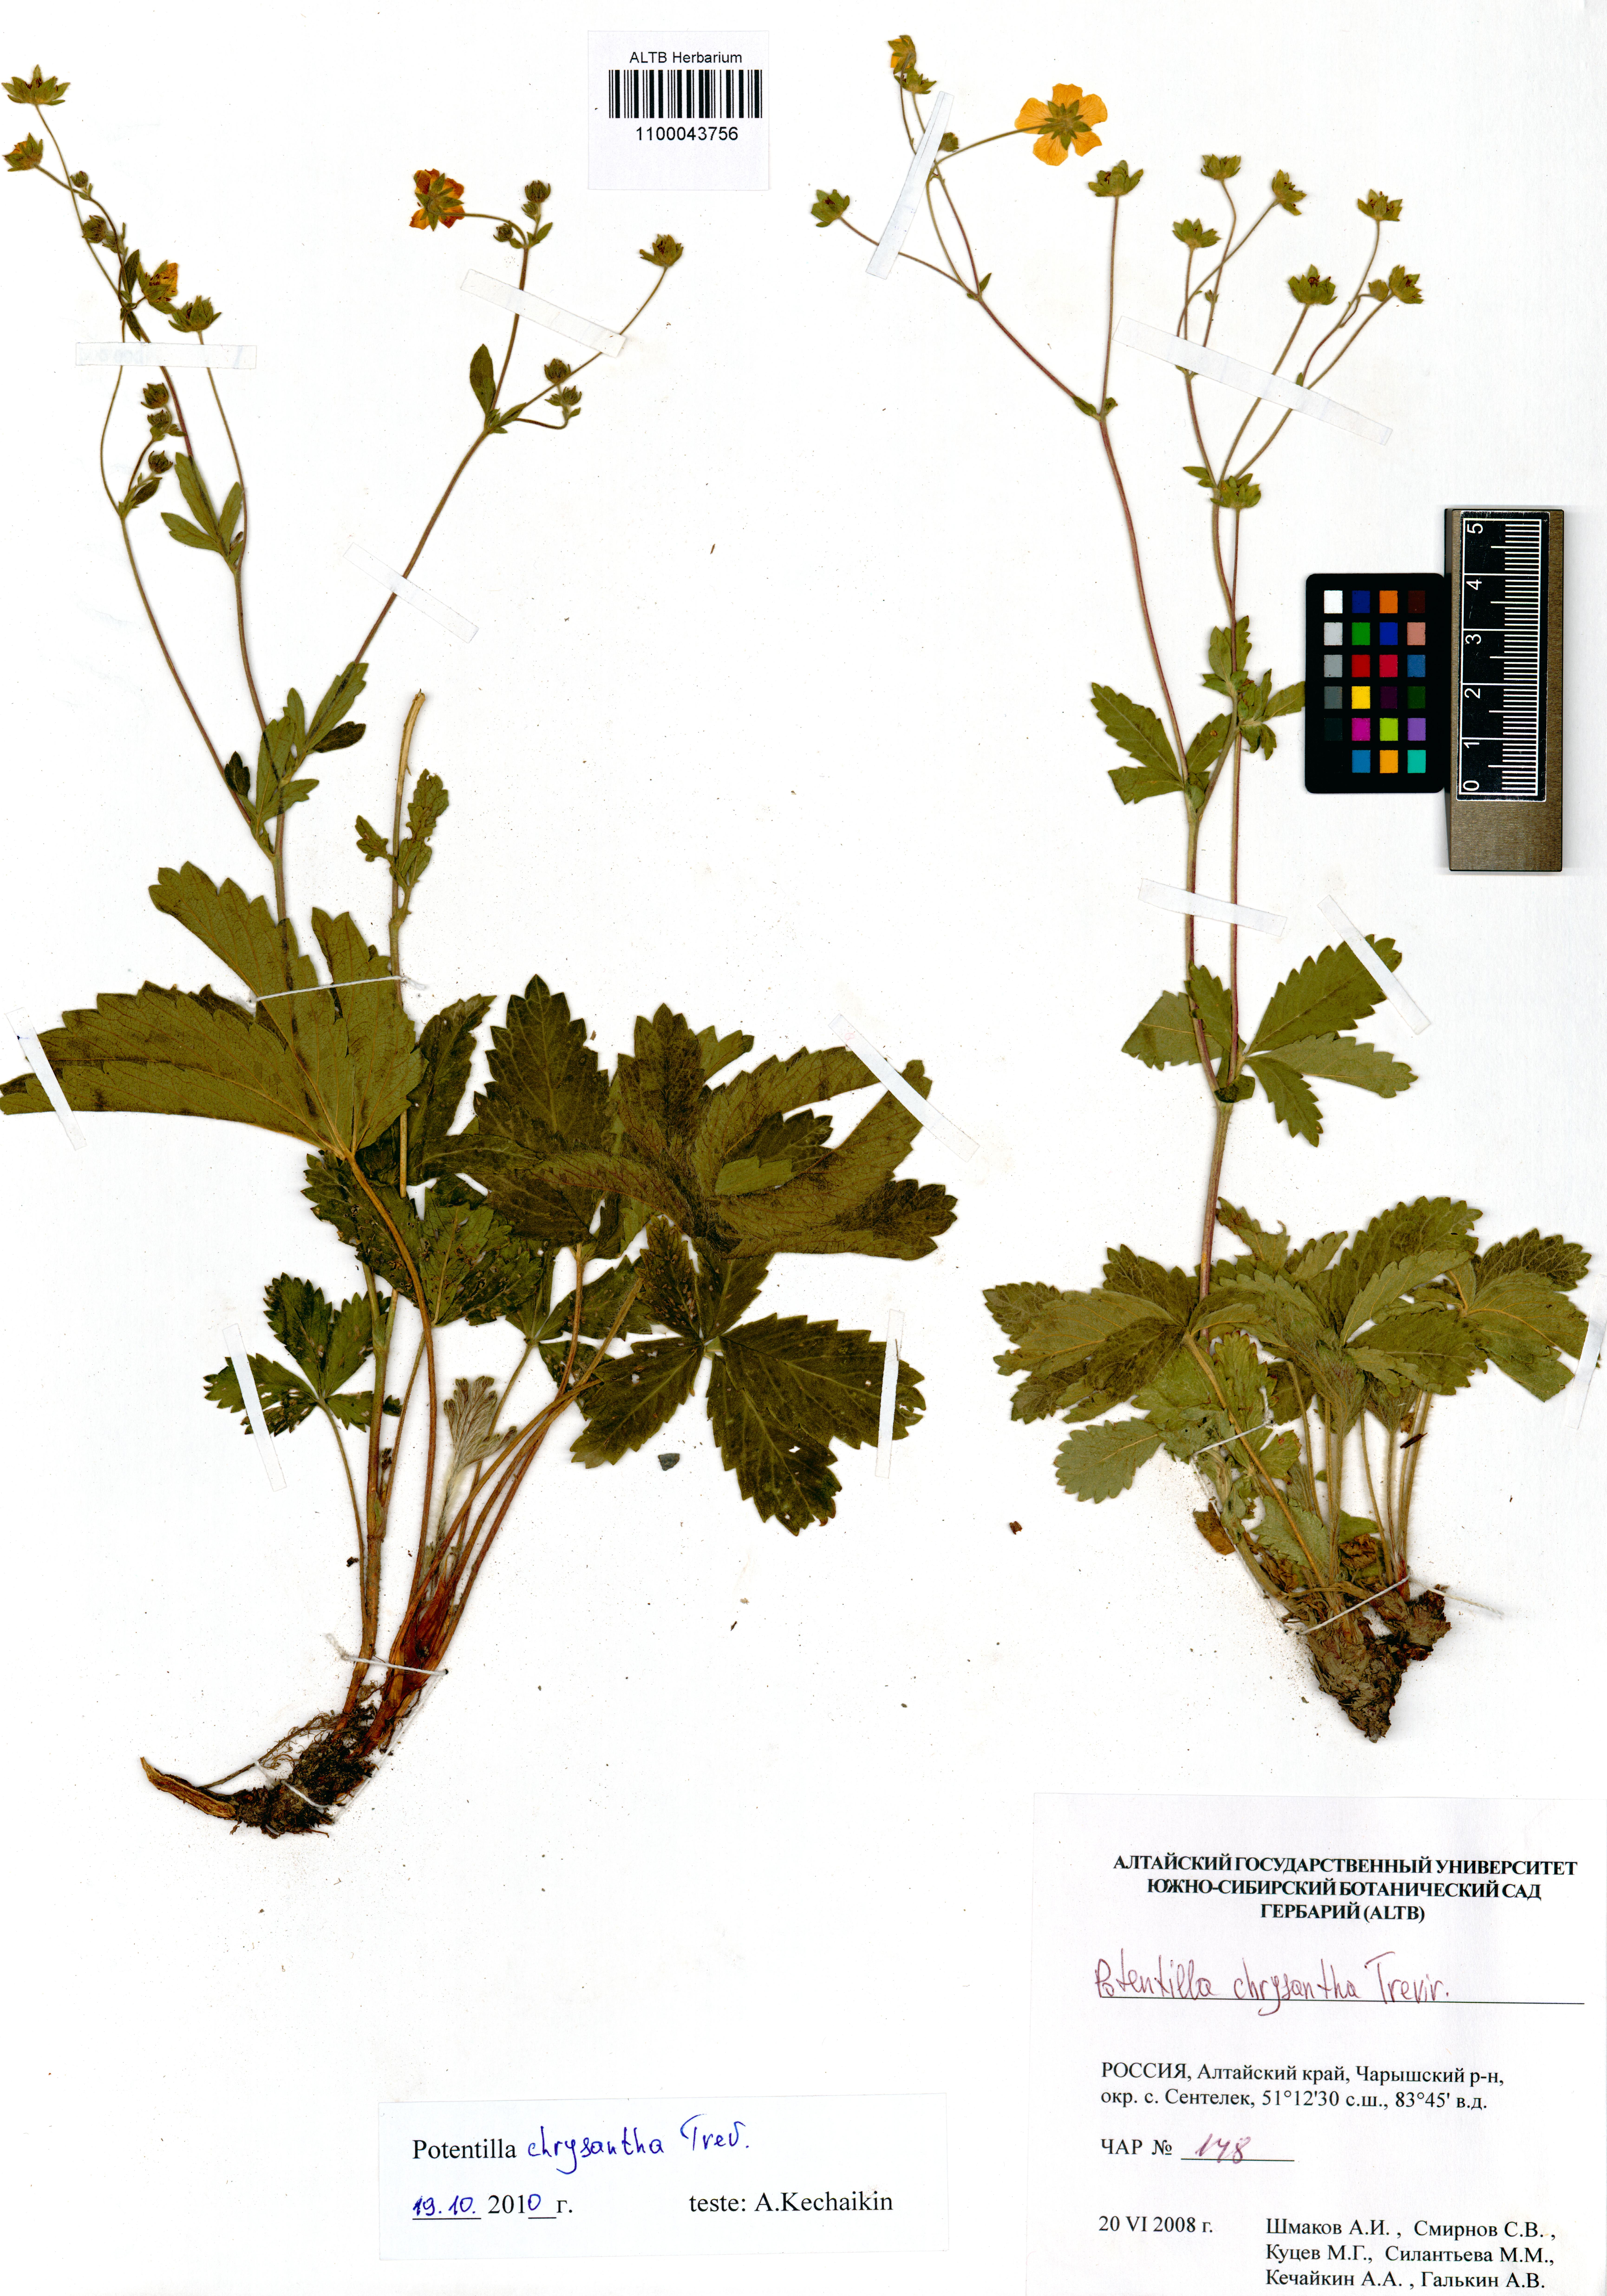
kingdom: Plantae
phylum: Tracheophyta
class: Magnoliopsida
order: Rosales
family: Rosaceae
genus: Potentilla
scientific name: Potentilla chrysantha
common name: Thuringian cinquefoil
